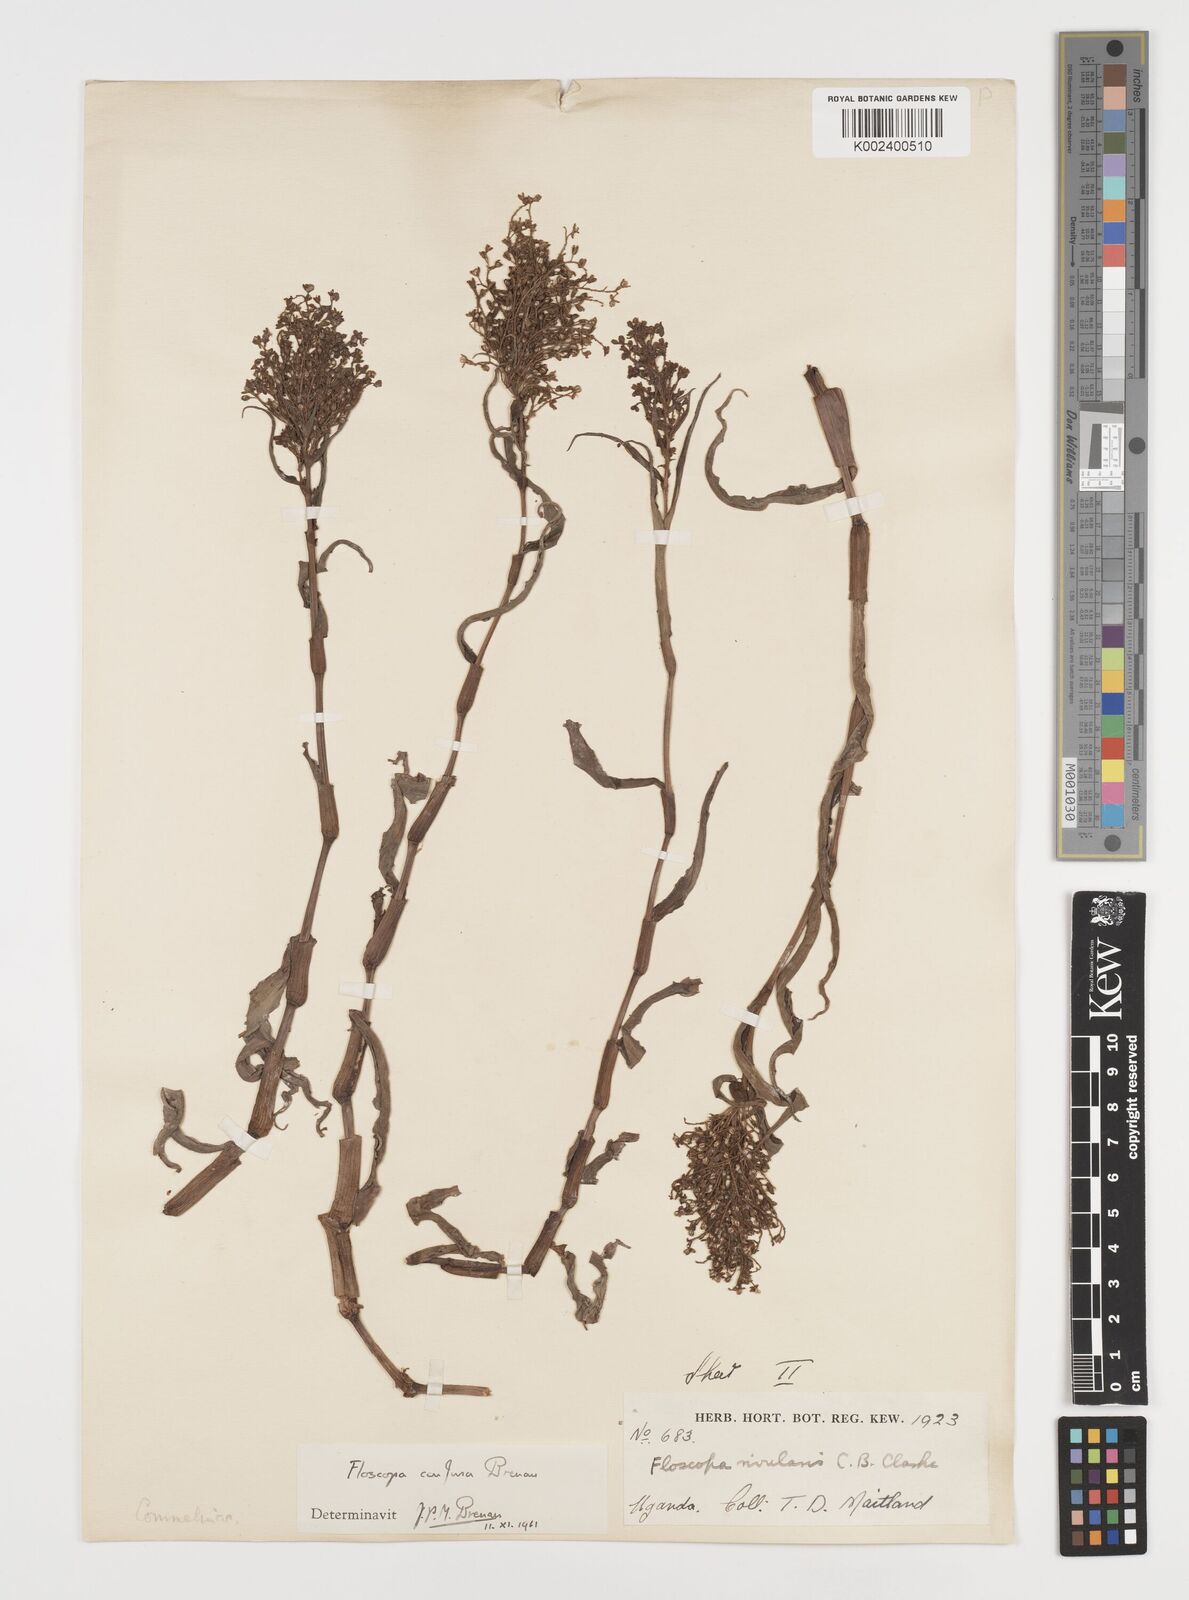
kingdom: Plantae
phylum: Tracheophyta
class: Liliopsida
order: Commelinales
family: Commelinaceae
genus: Floscopa
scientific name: Floscopa confusa
